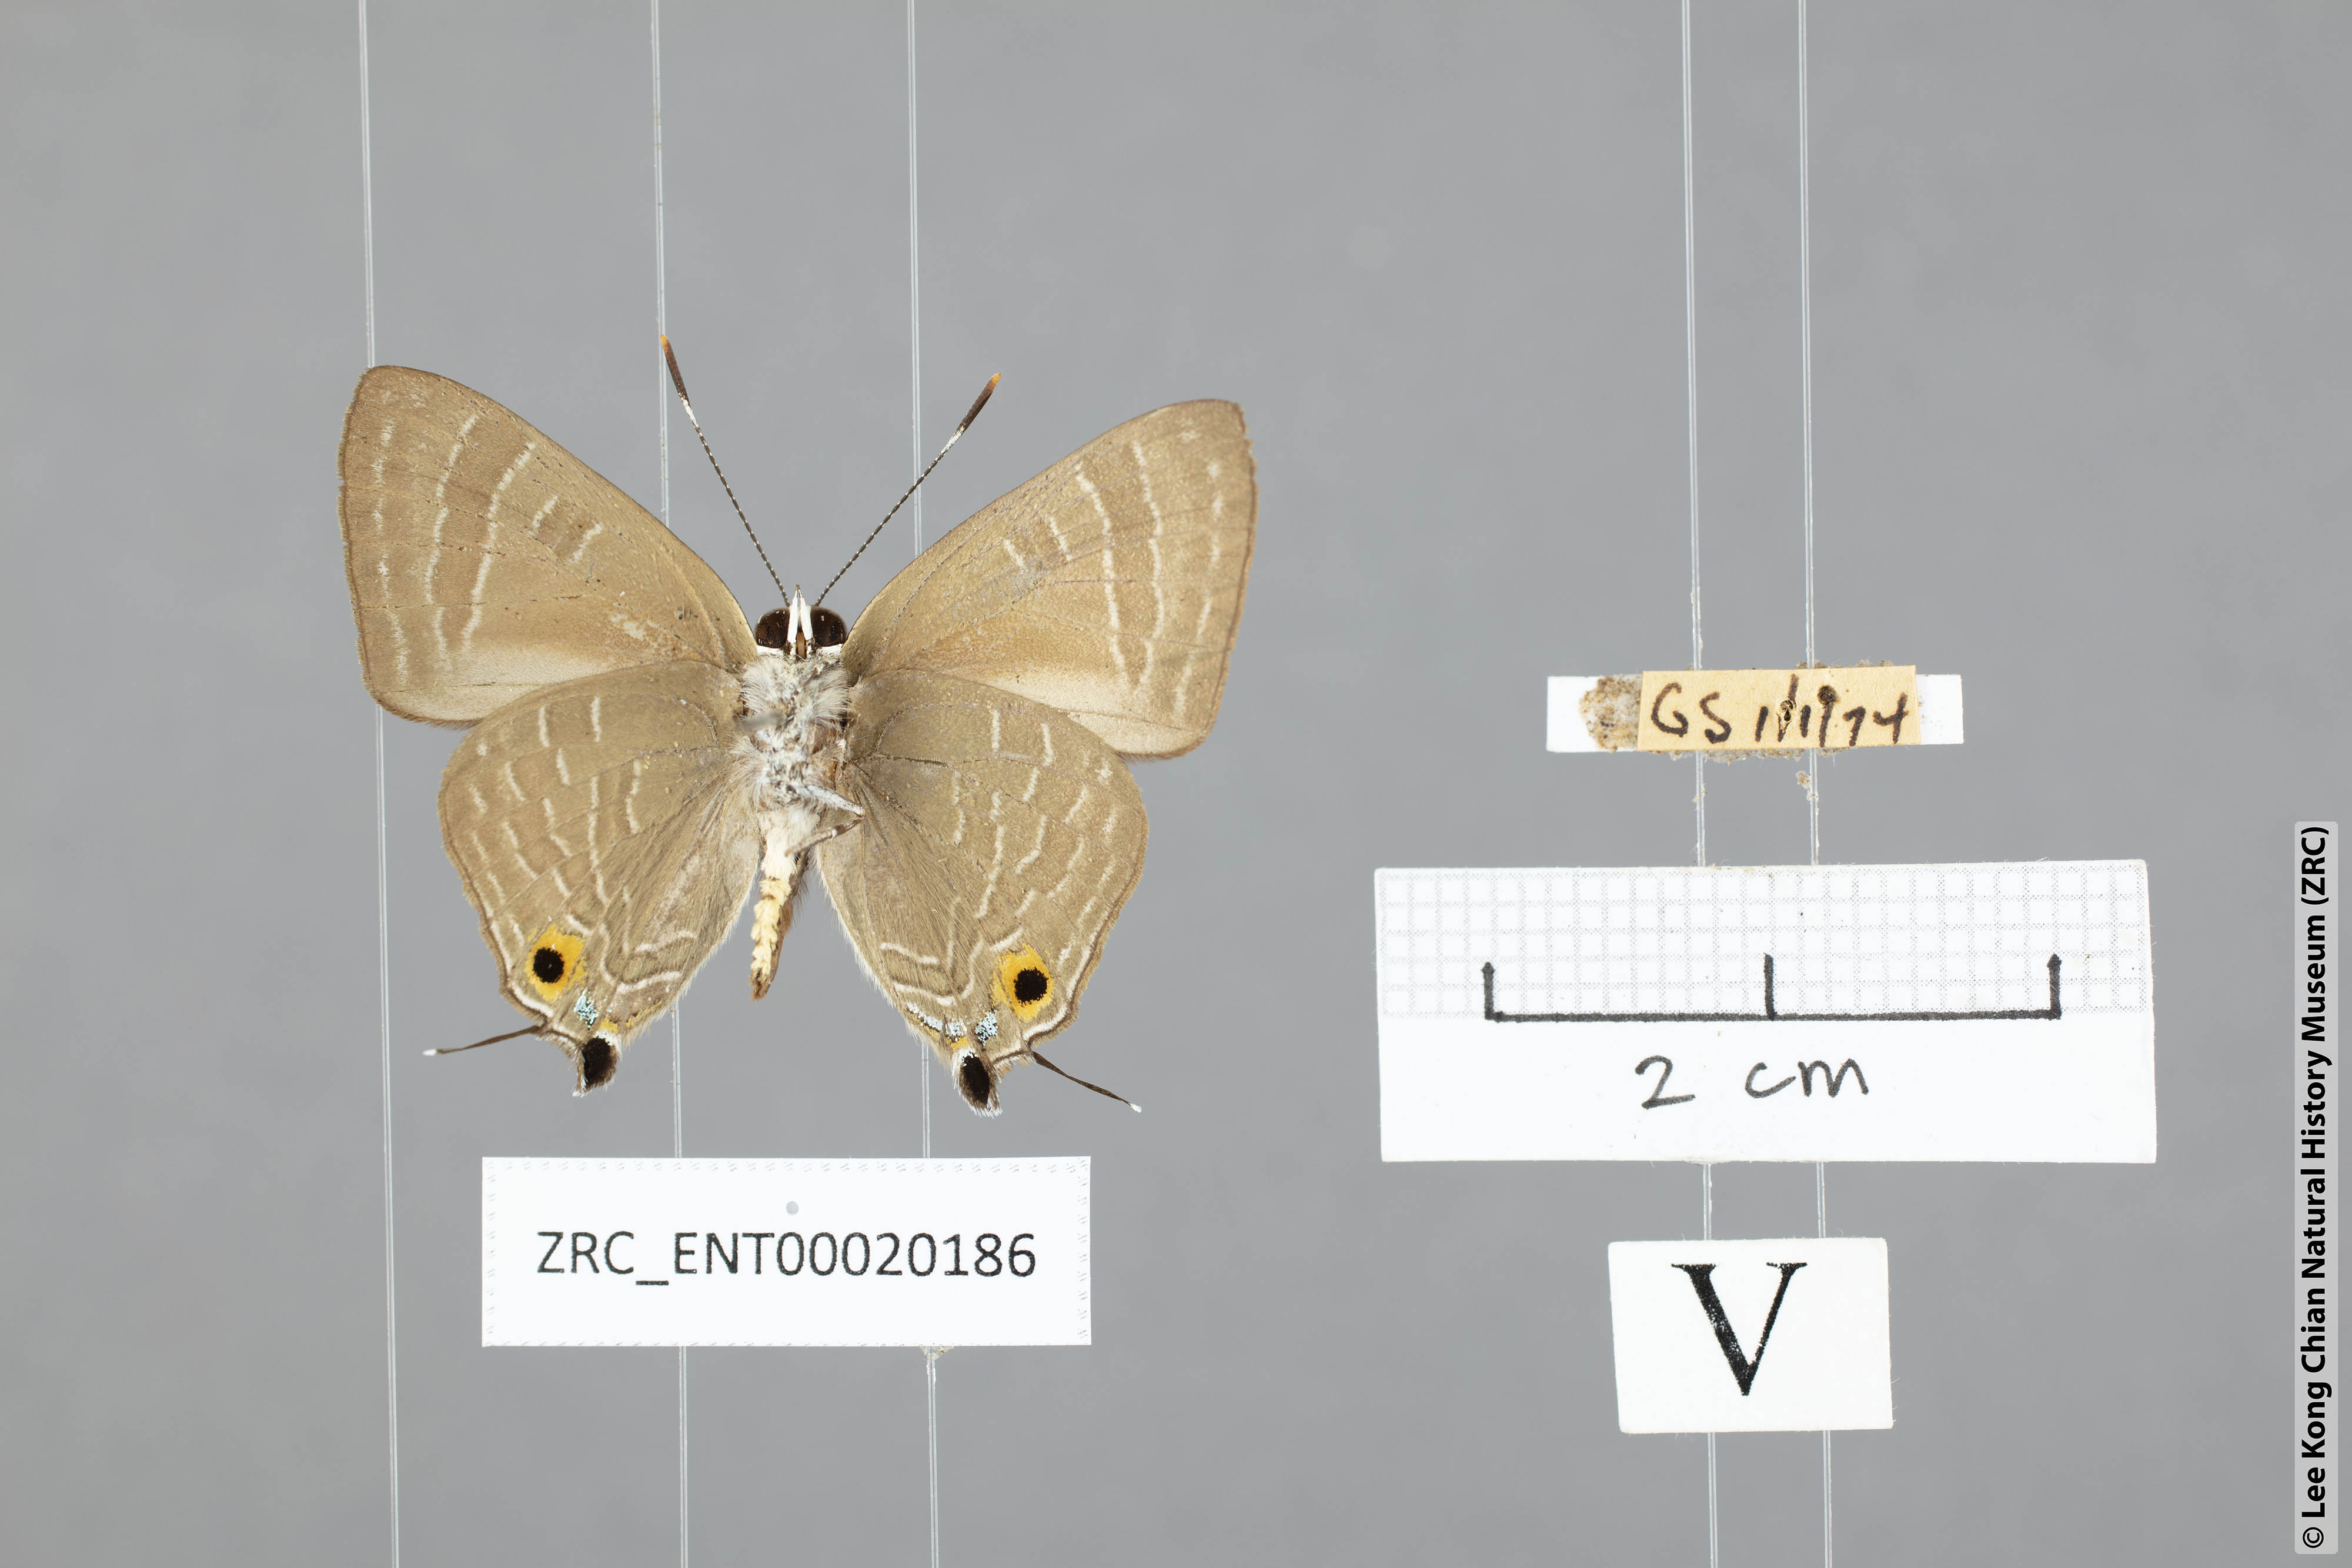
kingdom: Animalia
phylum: Arthropoda
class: Insecta
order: Lepidoptera
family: Lycaenidae
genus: Deudorix
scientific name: Deudorix epijarbas
